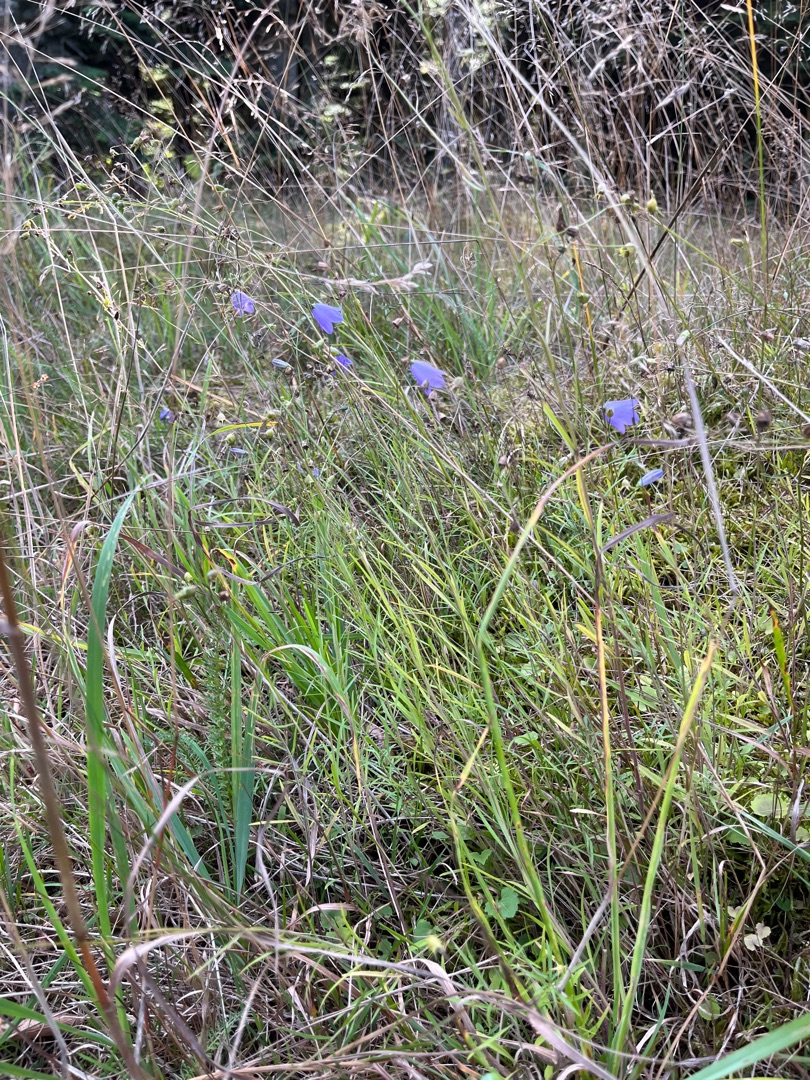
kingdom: Plantae
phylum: Tracheophyta
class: Magnoliopsida
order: Asterales
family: Campanulaceae
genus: Campanula
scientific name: Campanula rotundifolia
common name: Liden klokke
